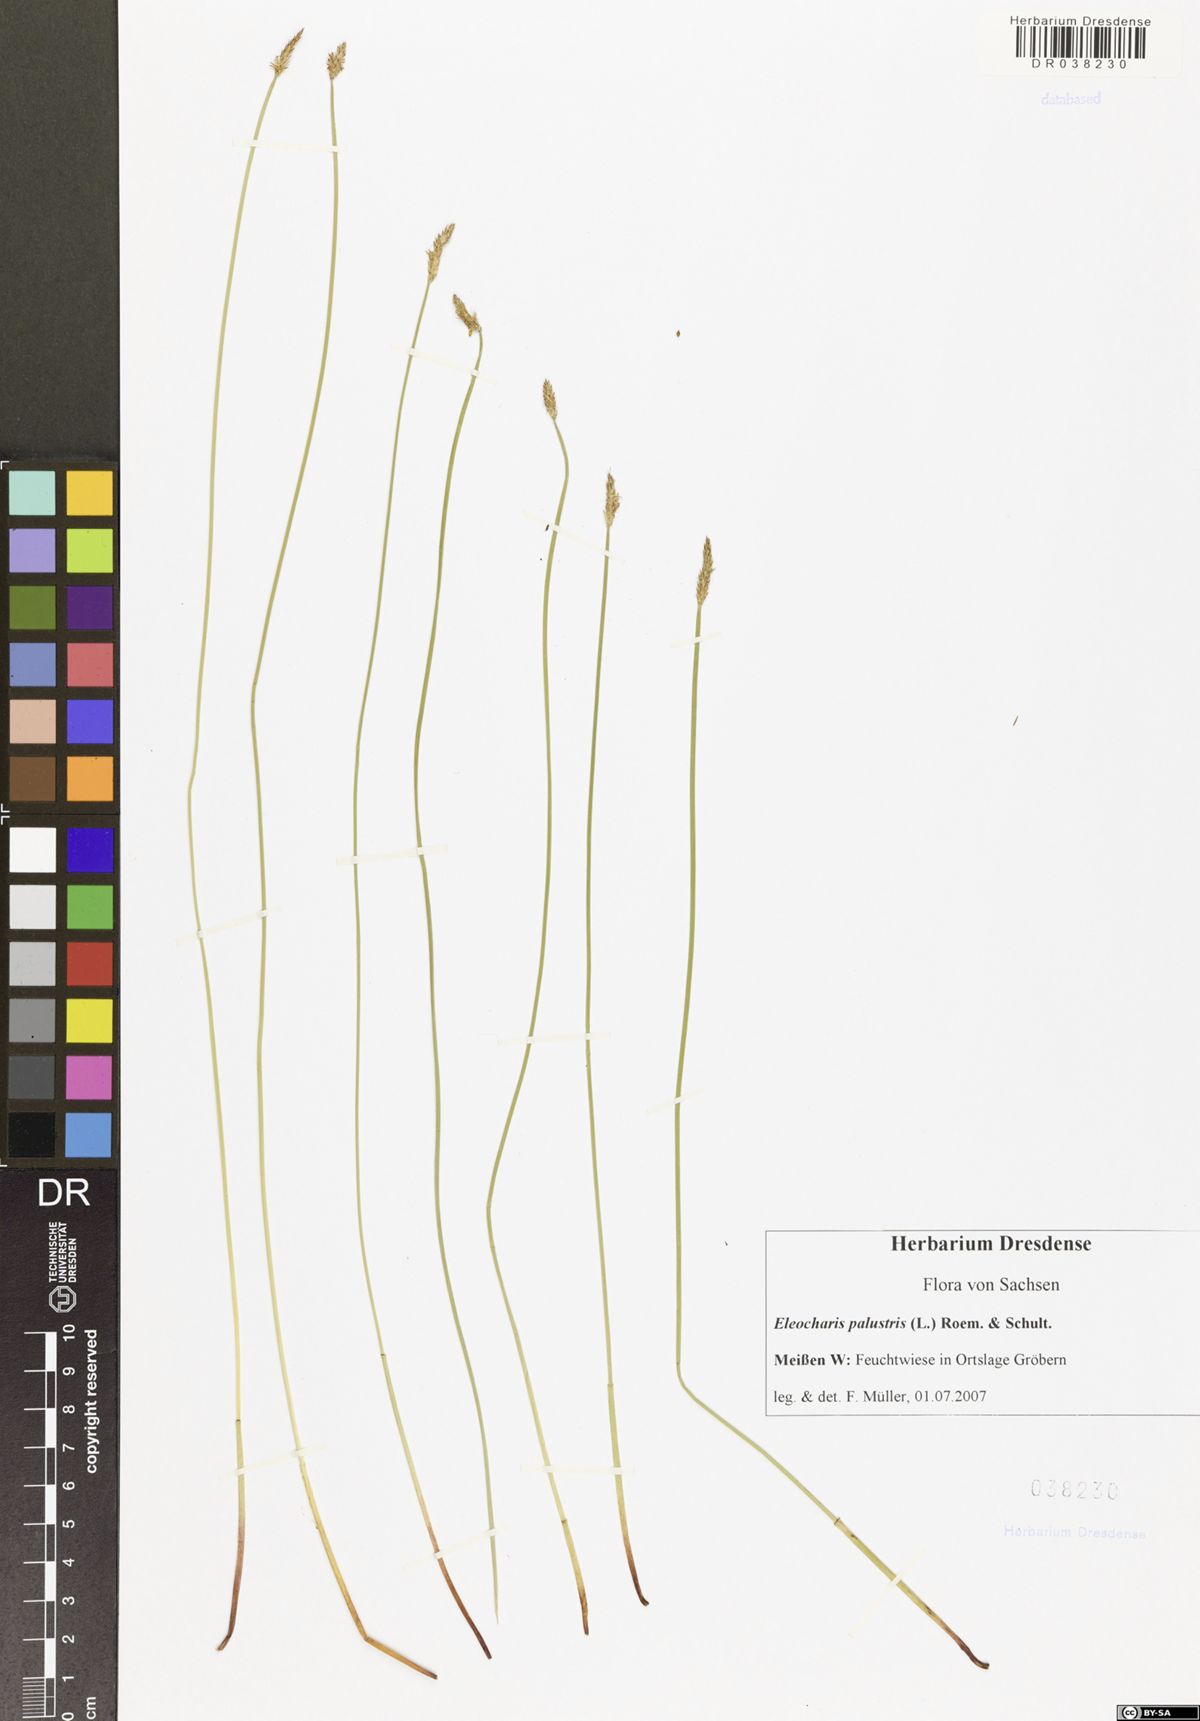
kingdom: Plantae
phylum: Tracheophyta
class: Liliopsida
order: Poales
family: Cyperaceae
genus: Eleocharis
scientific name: Eleocharis palustris
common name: Common spike-rush
